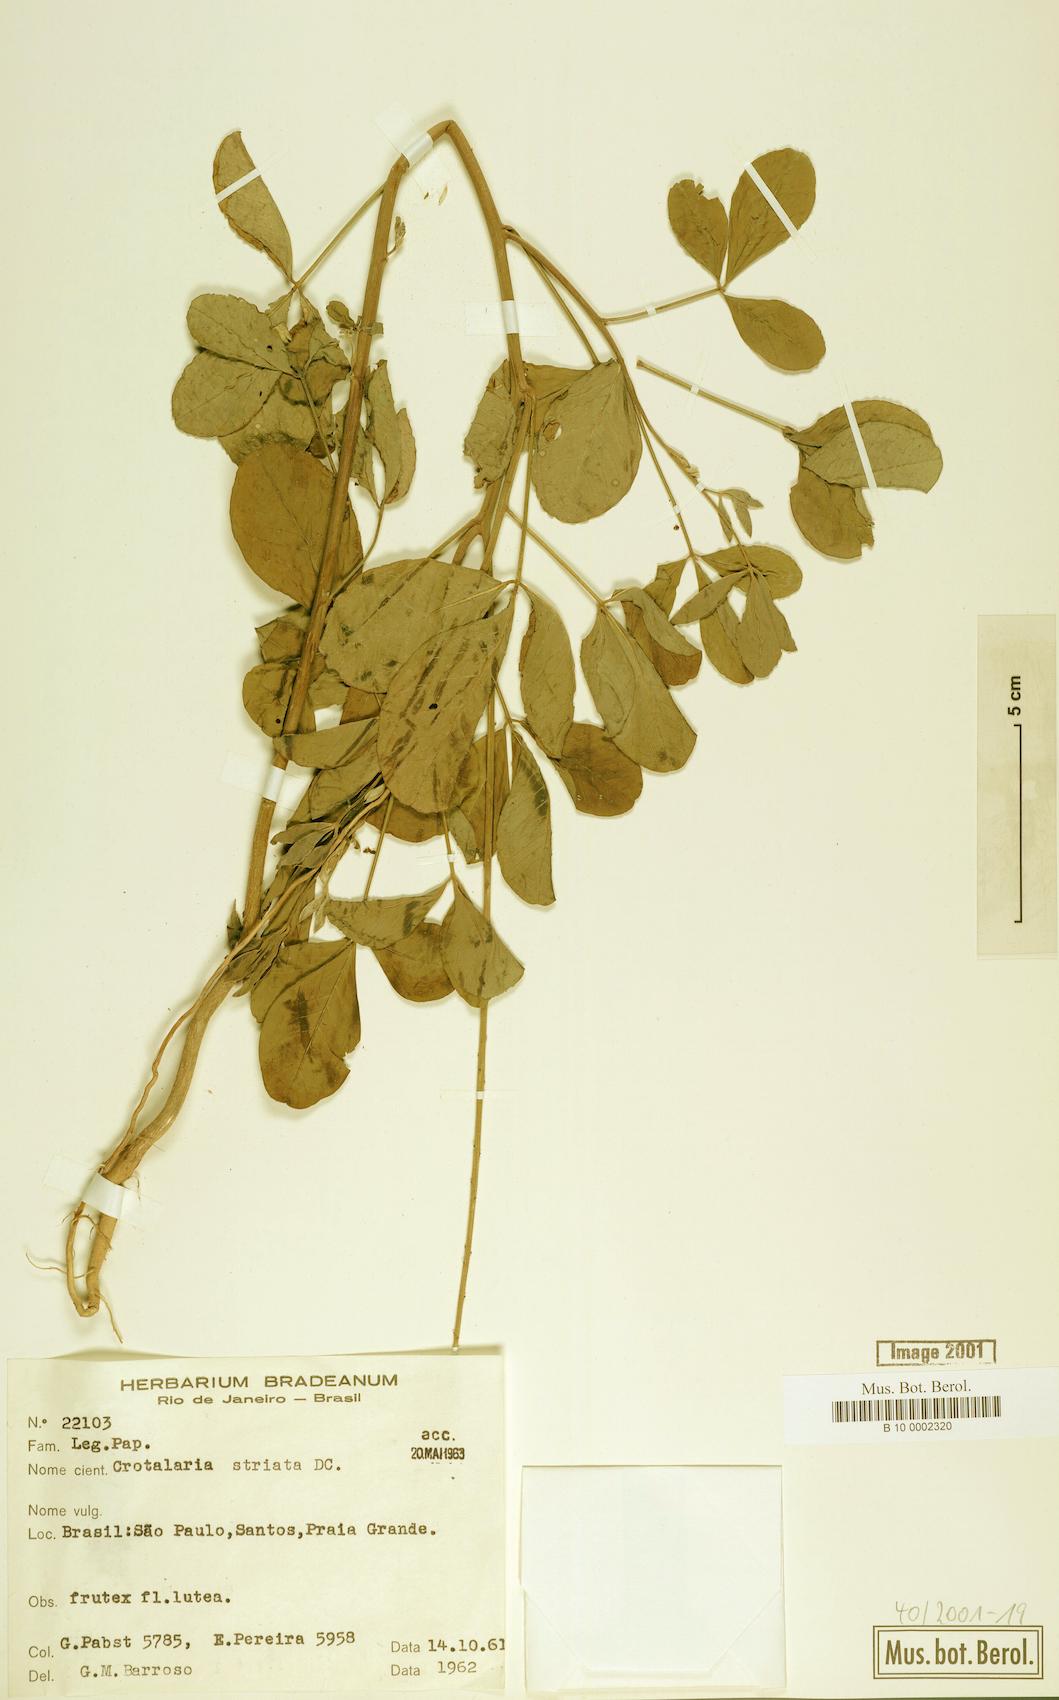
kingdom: Plantae
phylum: Tracheophyta
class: Magnoliopsida
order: Fabales
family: Fabaceae
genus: Crotalaria
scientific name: Crotalaria pallida
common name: Smooth rattlebox
